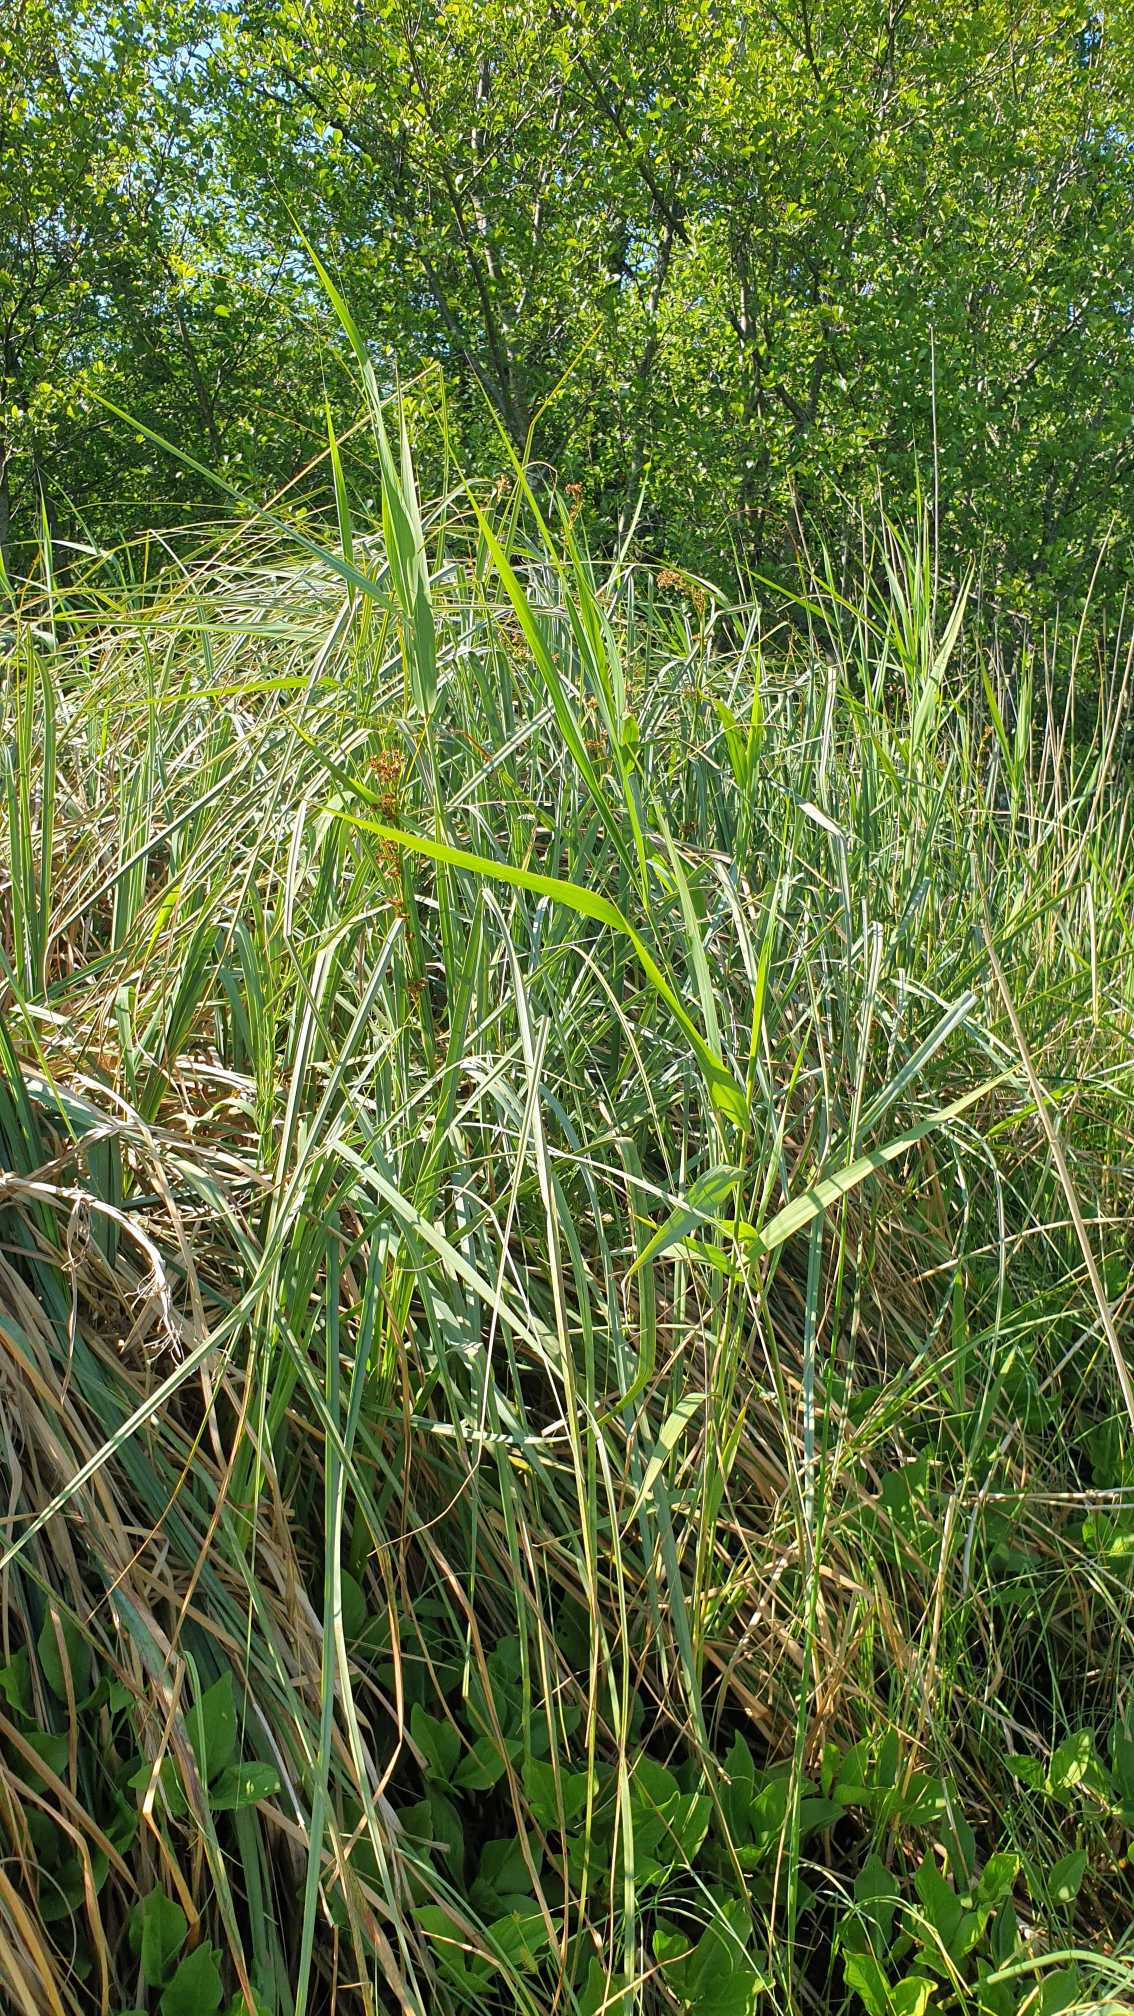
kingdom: Plantae
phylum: Tracheophyta
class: Liliopsida
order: Poales
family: Cyperaceae
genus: Cladium
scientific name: Cladium mariscus
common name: Hvas avneknippe
